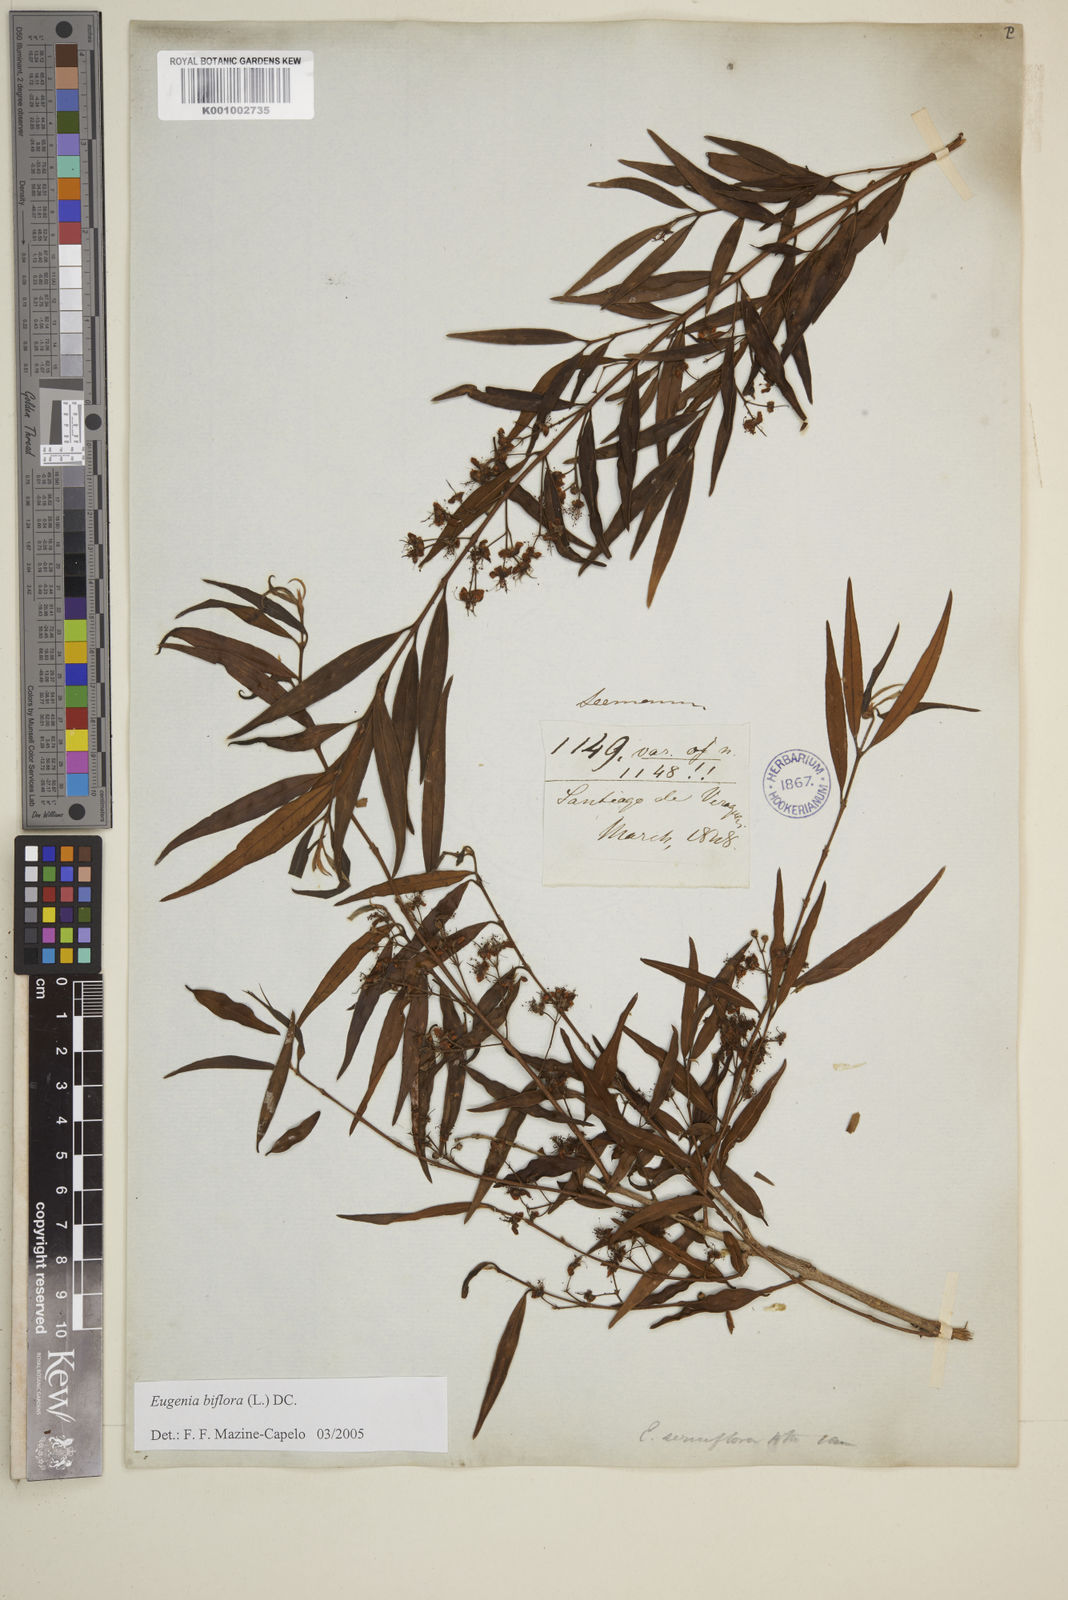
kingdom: Plantae
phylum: Tracheophyta
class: Magnoliopsida
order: Myrtales
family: Myrtaceae
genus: Eugenia
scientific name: Eugenia biflora
